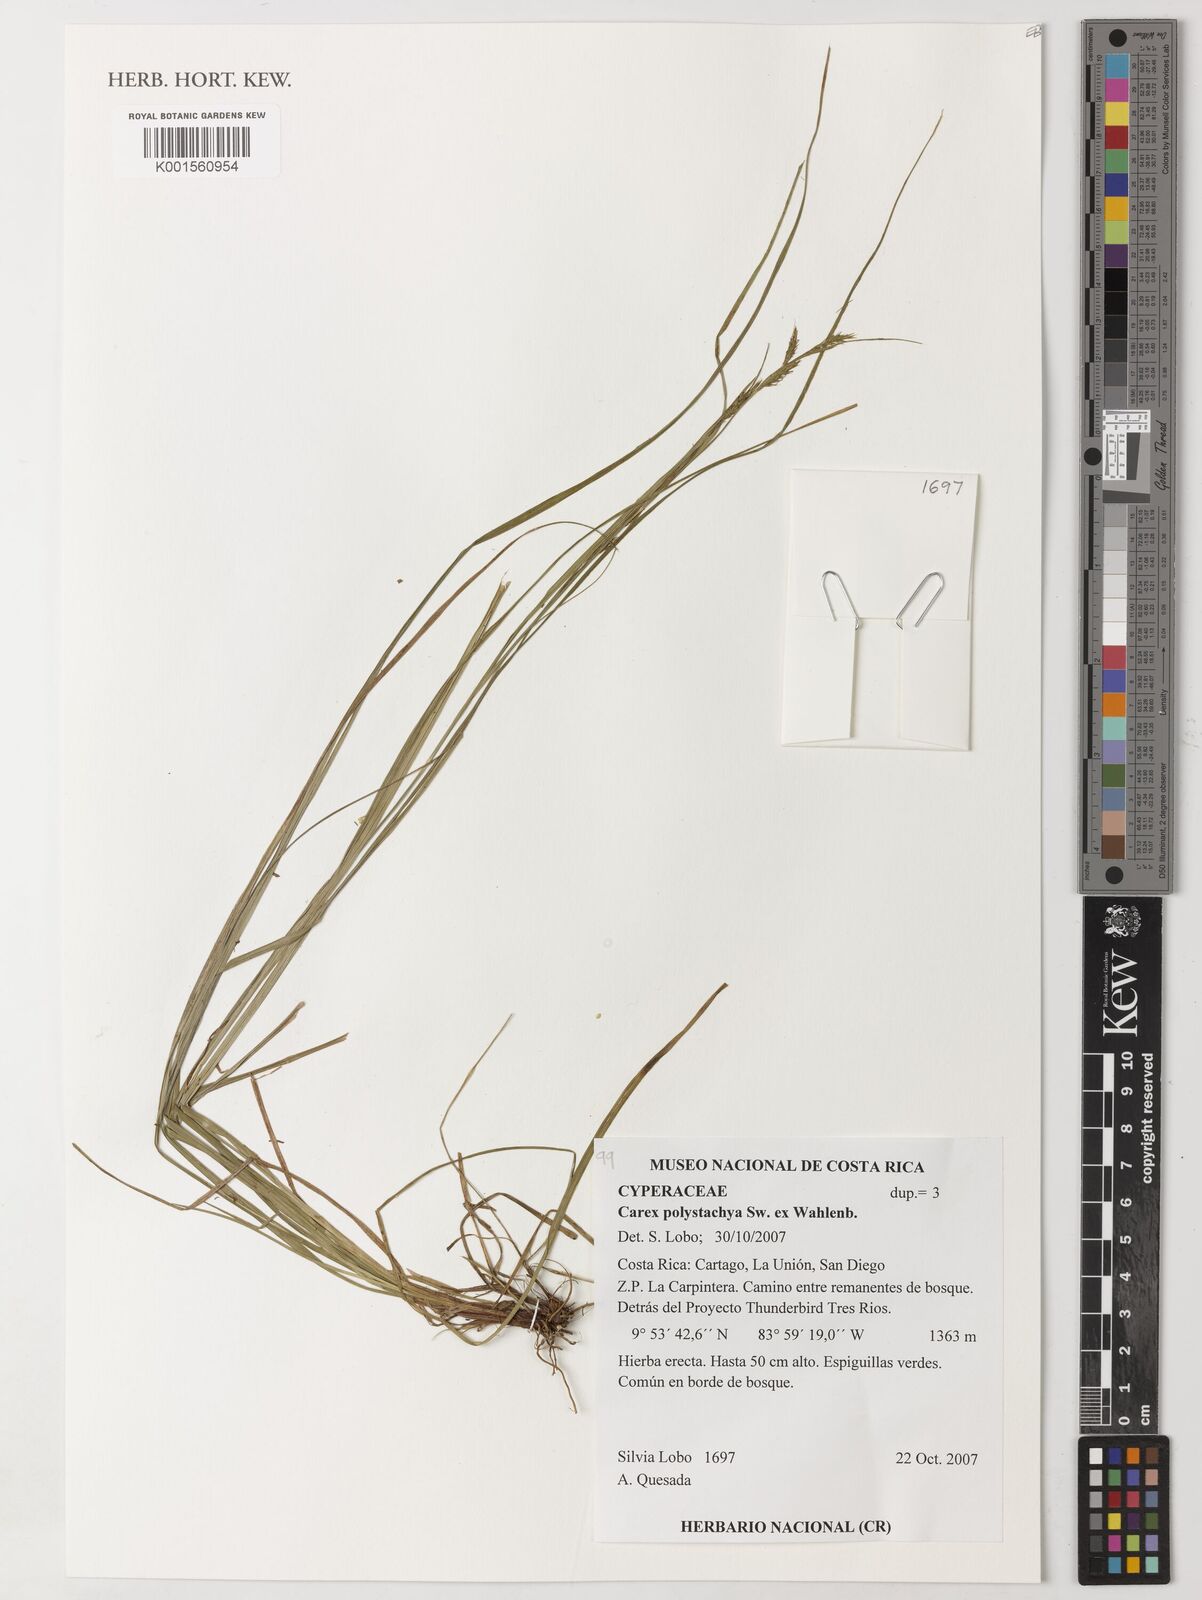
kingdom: Plantae
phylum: Tracheophyta
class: Liliopsida
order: Poales
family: Cyperaceae
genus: Carex
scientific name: Carex polystachya
